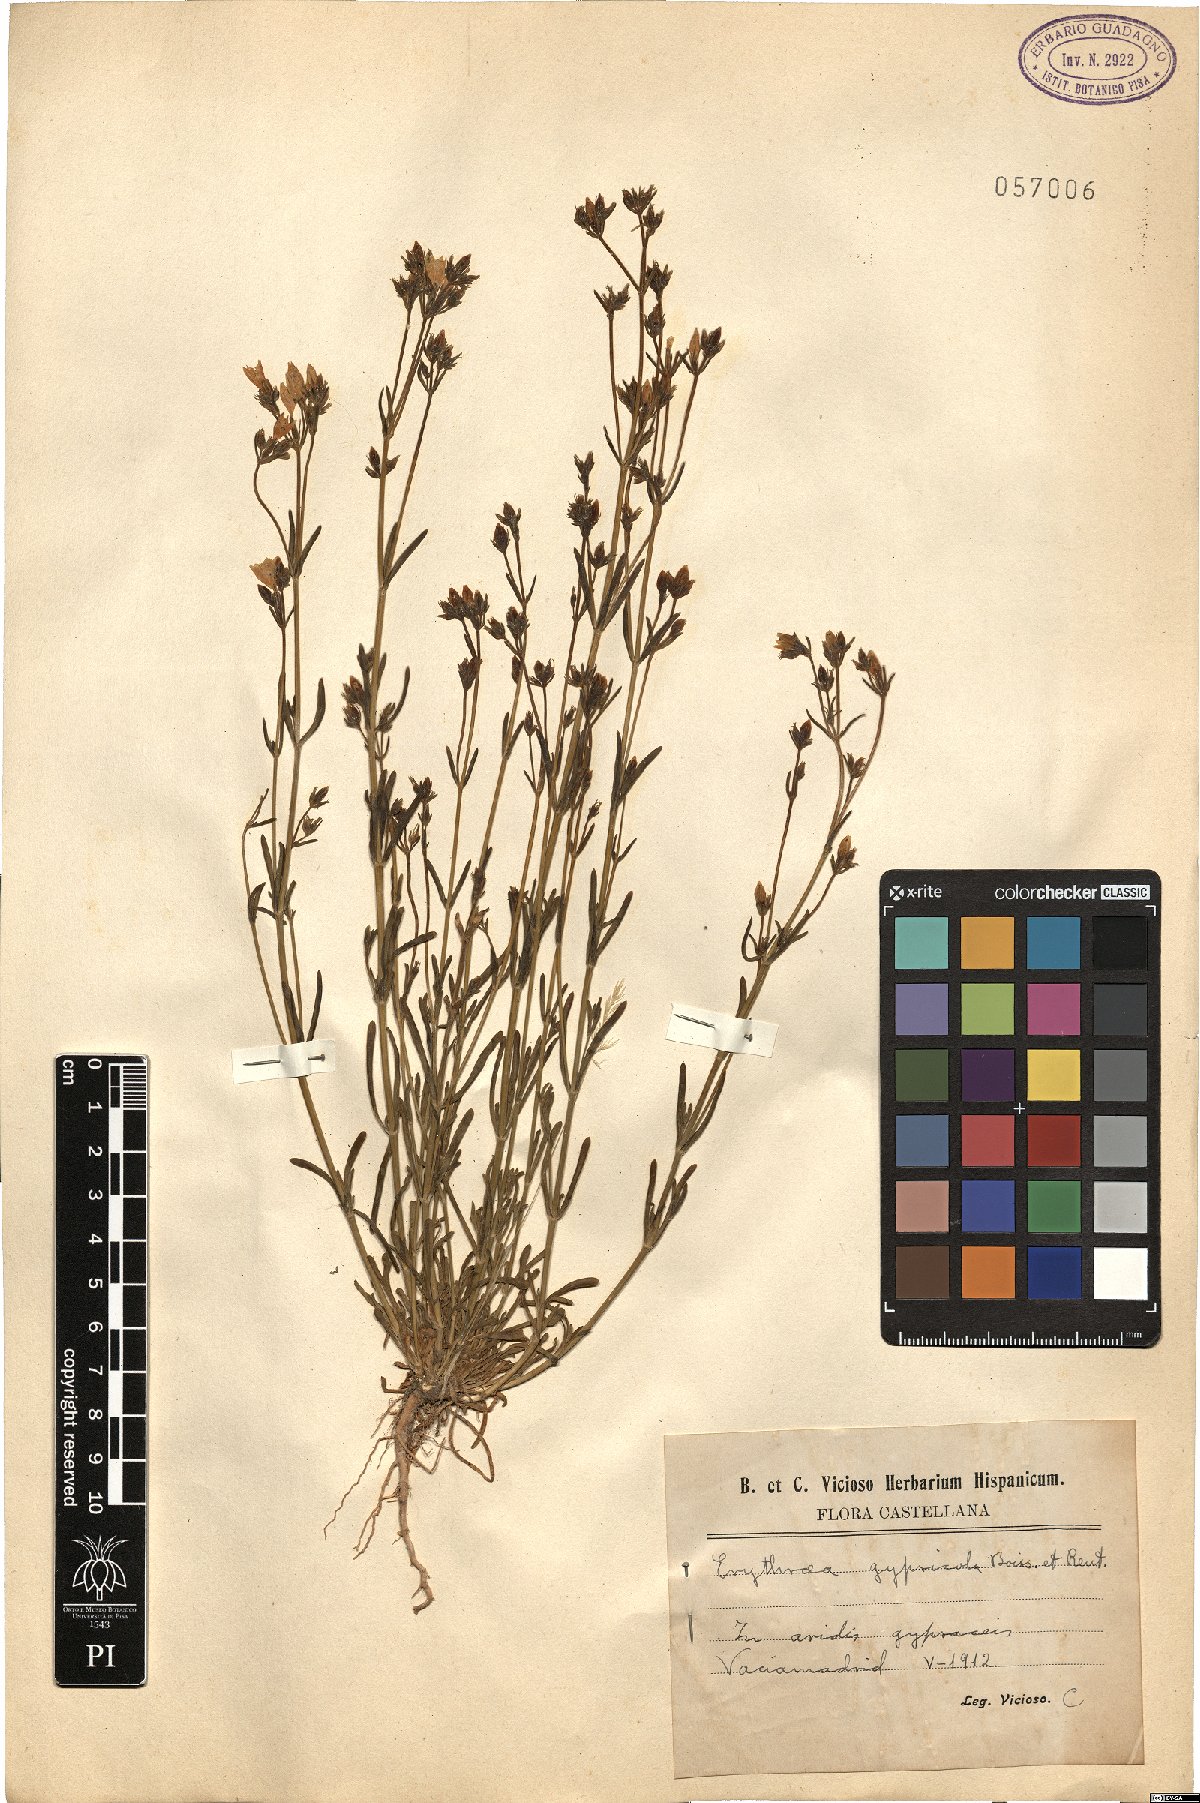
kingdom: Plantae
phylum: Tracheophyta
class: Magnoliopsida
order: Gentianales
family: Gentianaceae
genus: Centaurium
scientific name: Centaurium quadrifolium
